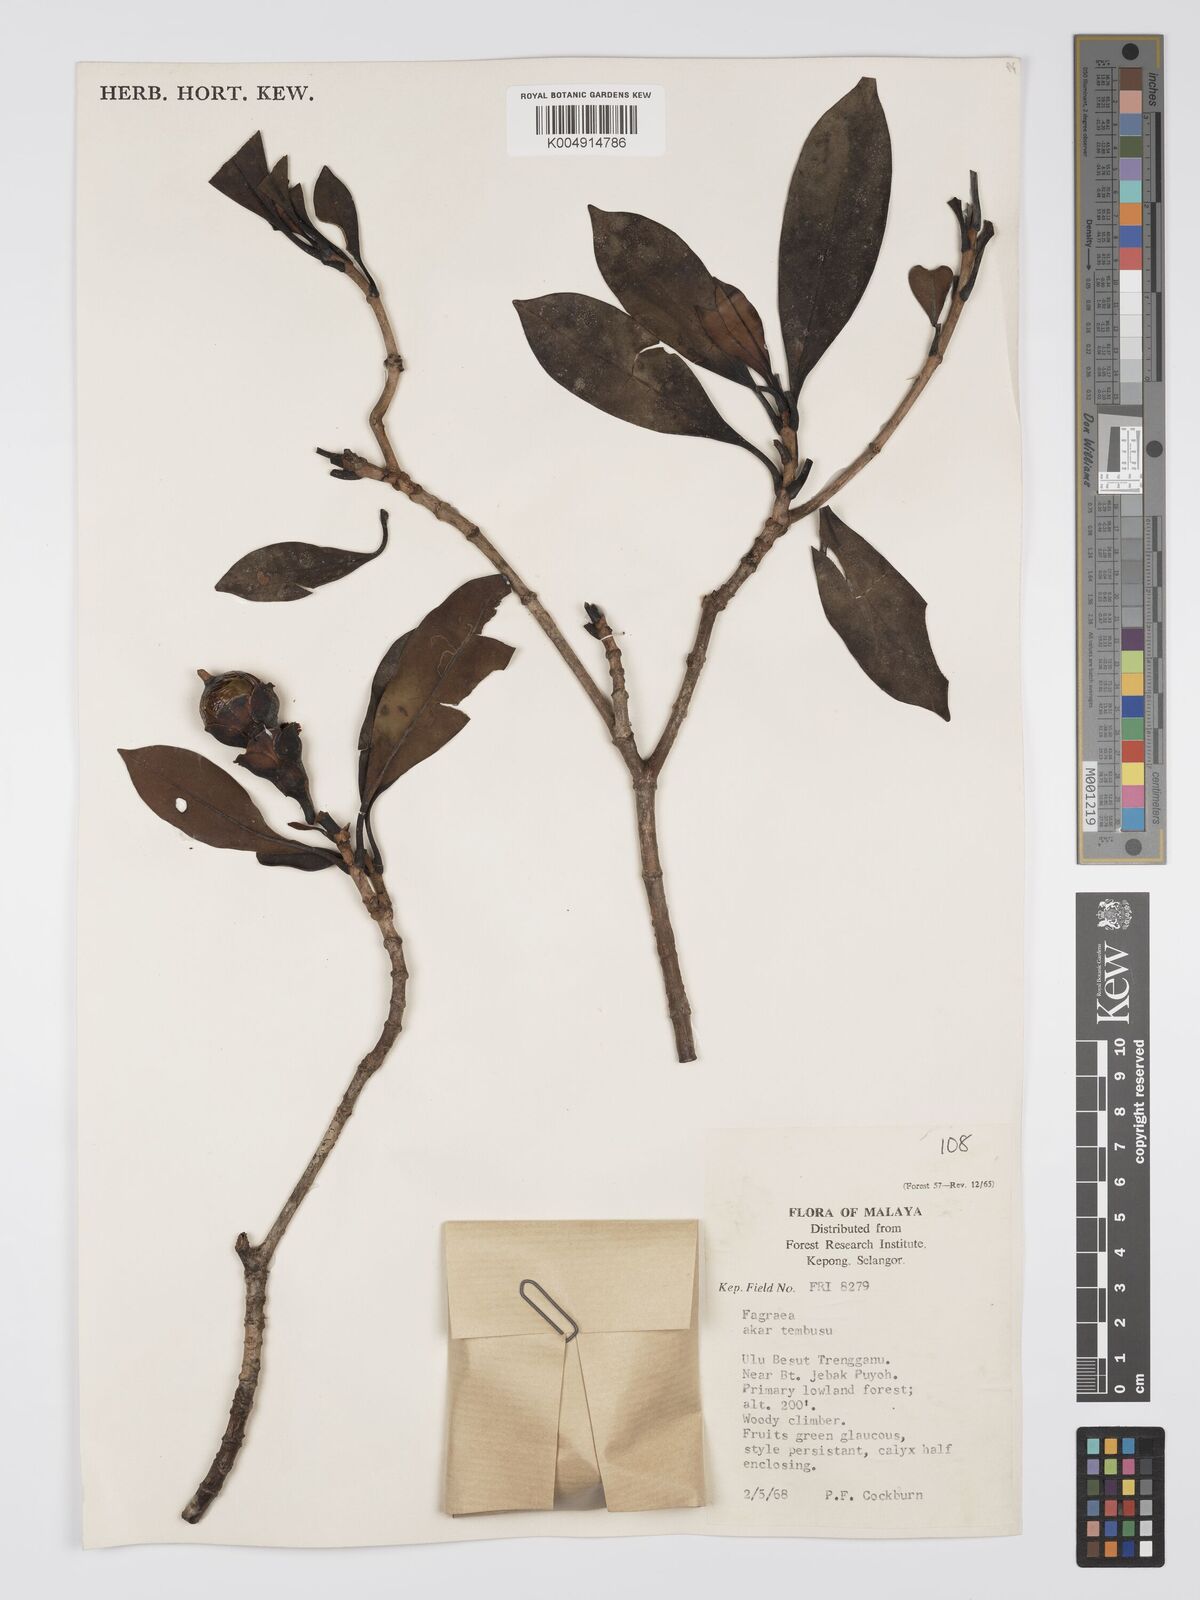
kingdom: Plantae
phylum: Tracheophyta
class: Magnoliopsida
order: Gentianales
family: Gentianaceae
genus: Fagraea
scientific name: Fagraea oblonga
